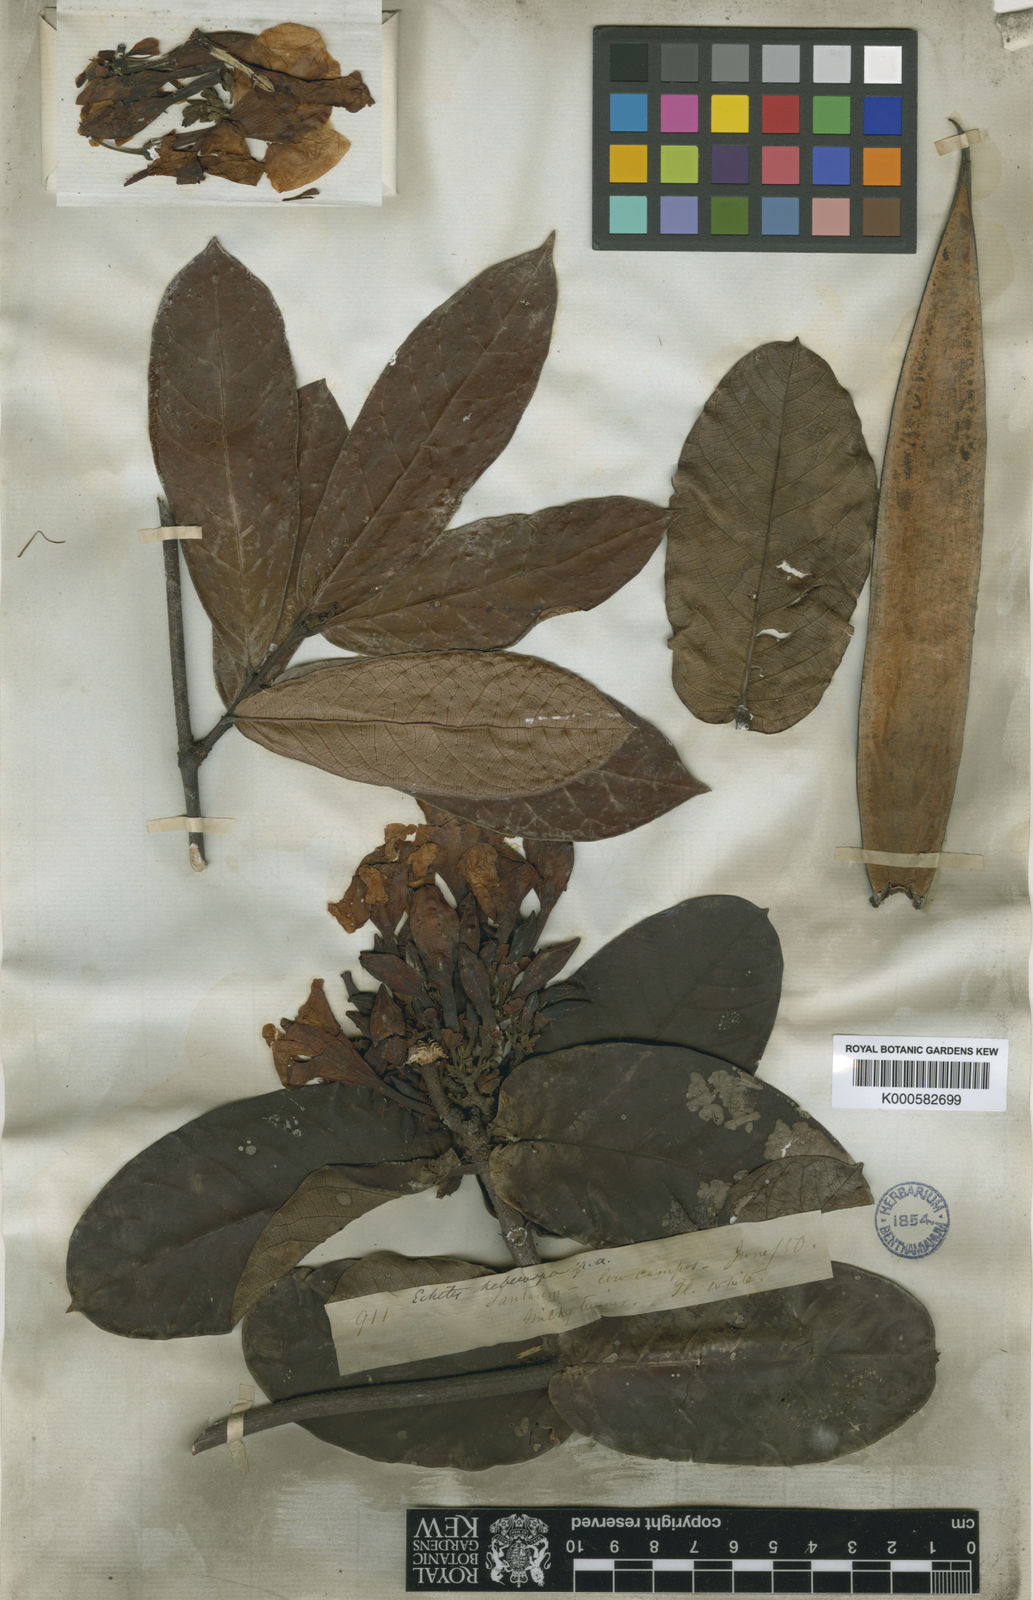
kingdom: Plantae
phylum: Tracheophyta
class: Magnoliopsida
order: Gentianales
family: Apocynaceae
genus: Odontadenia
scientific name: Odontadenia lutea
